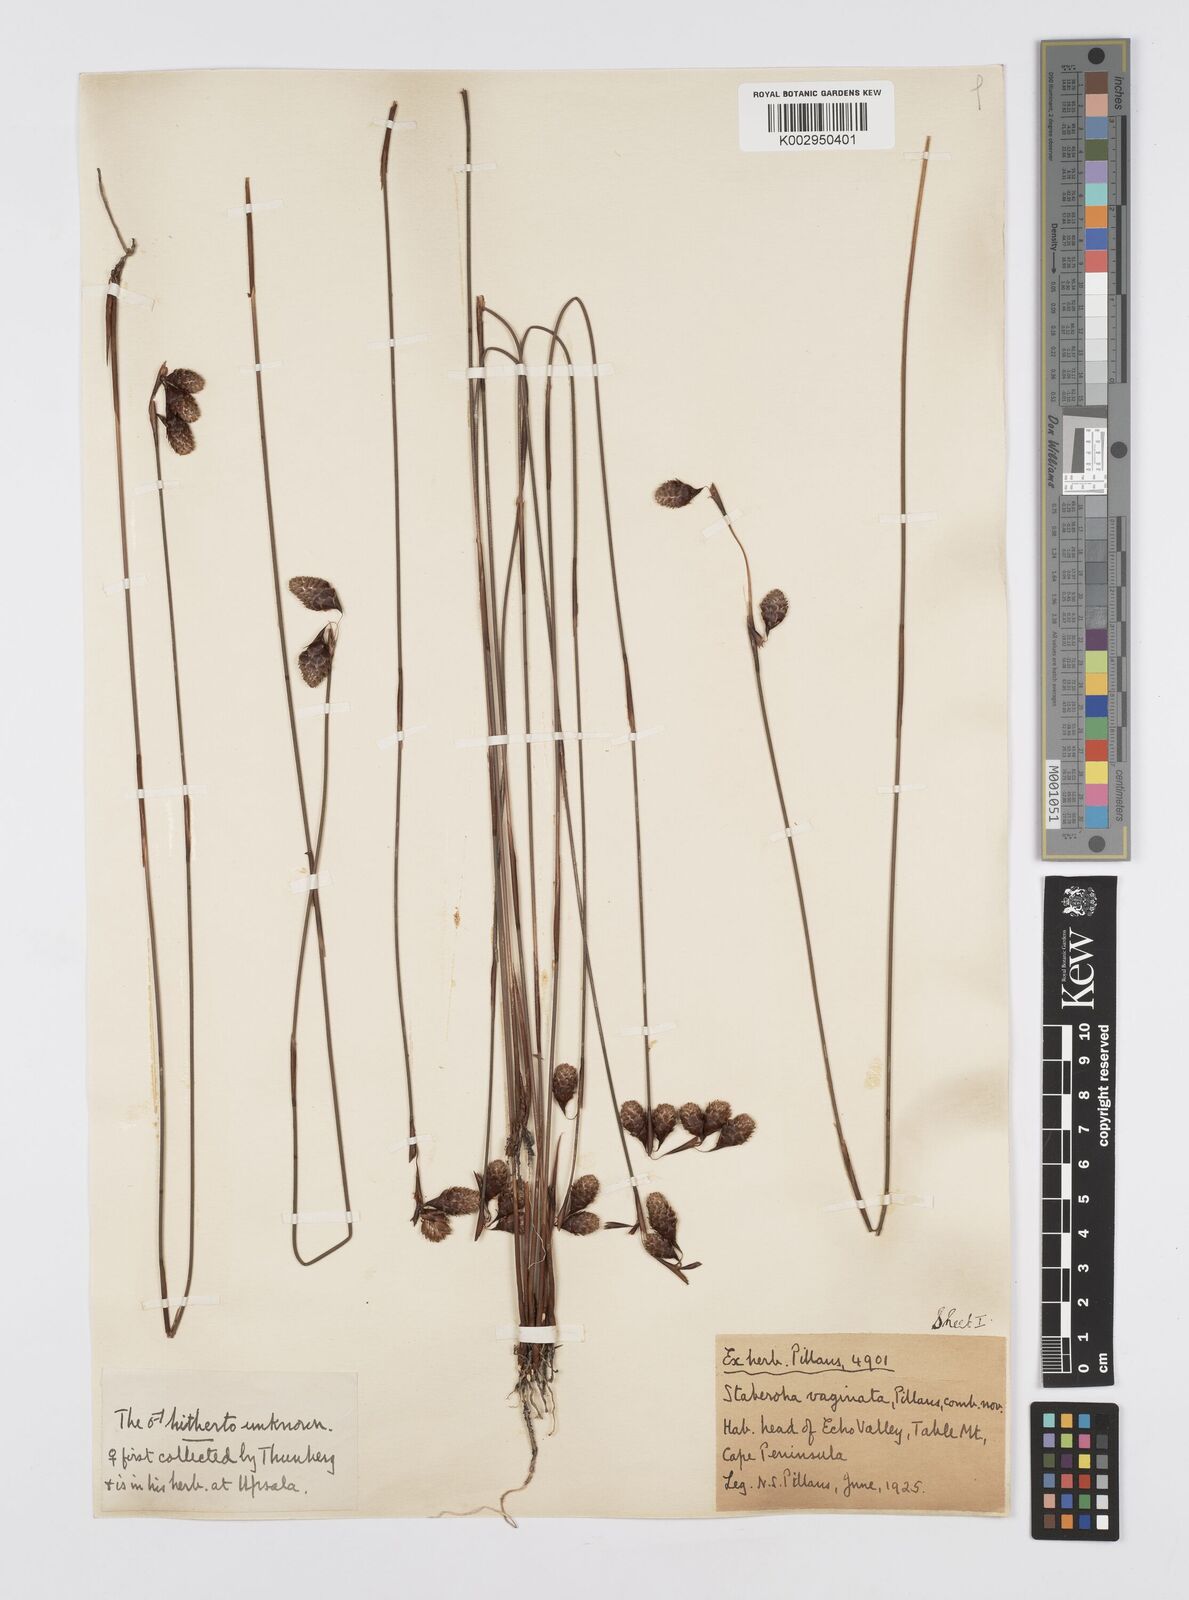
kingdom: Plantae
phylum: Tracheophyta
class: Liliopsida
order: Poales
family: Restionaceae
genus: Staberoha
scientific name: Staberoha vaginata
